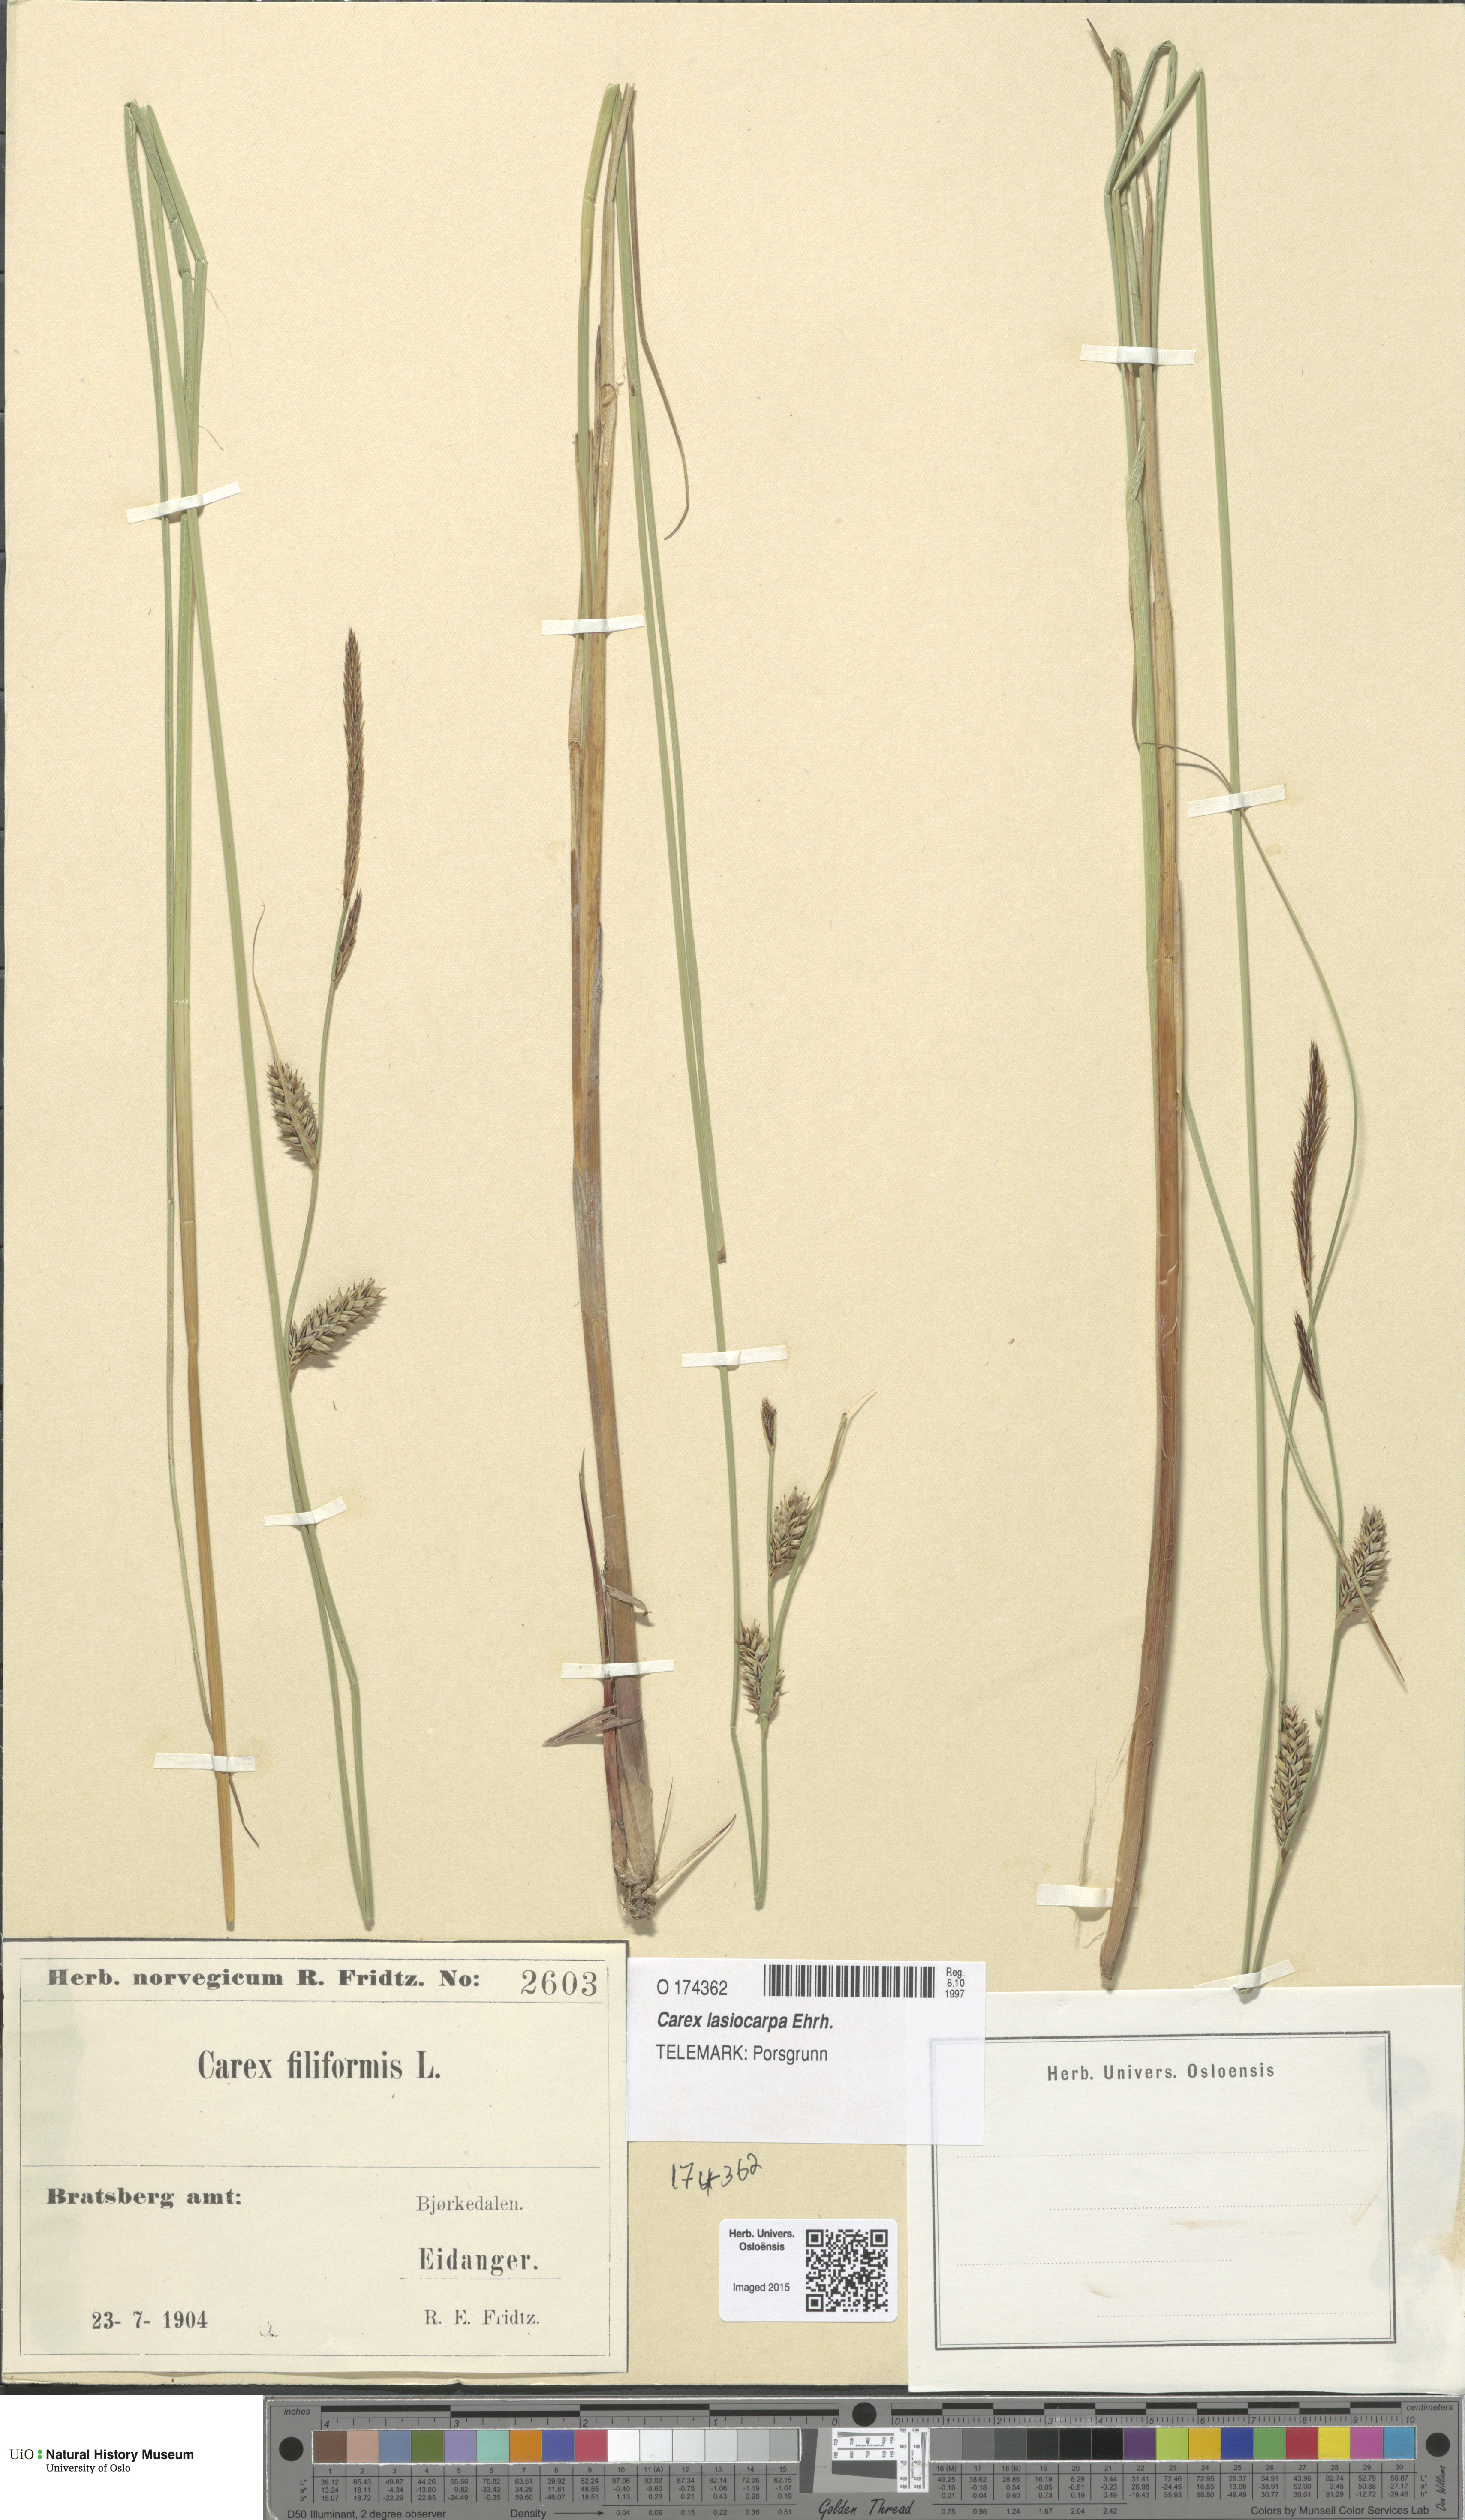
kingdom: Plantae
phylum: Tracheophyta
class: Liliopsida
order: Poales
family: Cyperaceae
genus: Carex
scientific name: Carex montana
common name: Soft-leaved sedge
